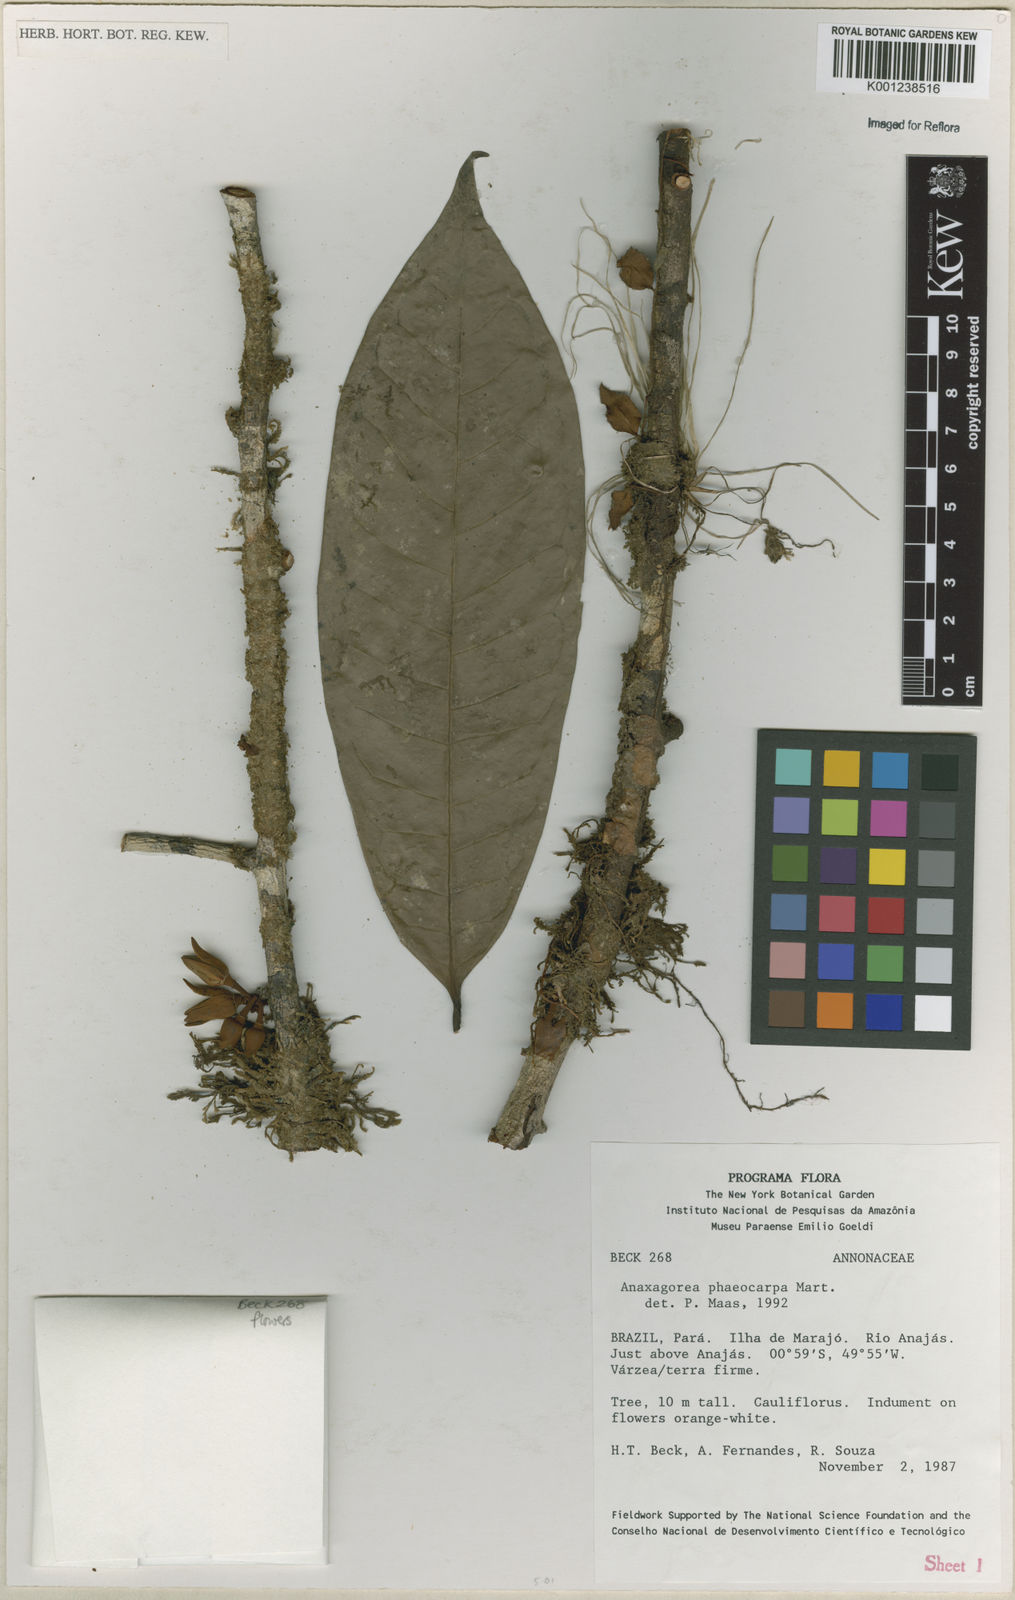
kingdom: Plantae
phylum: Tracheophyta
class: Magnoliopsida
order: Magnoliales
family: Annonaceae
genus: Anaxagorea
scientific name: Anaxagorea phaeocarpa
